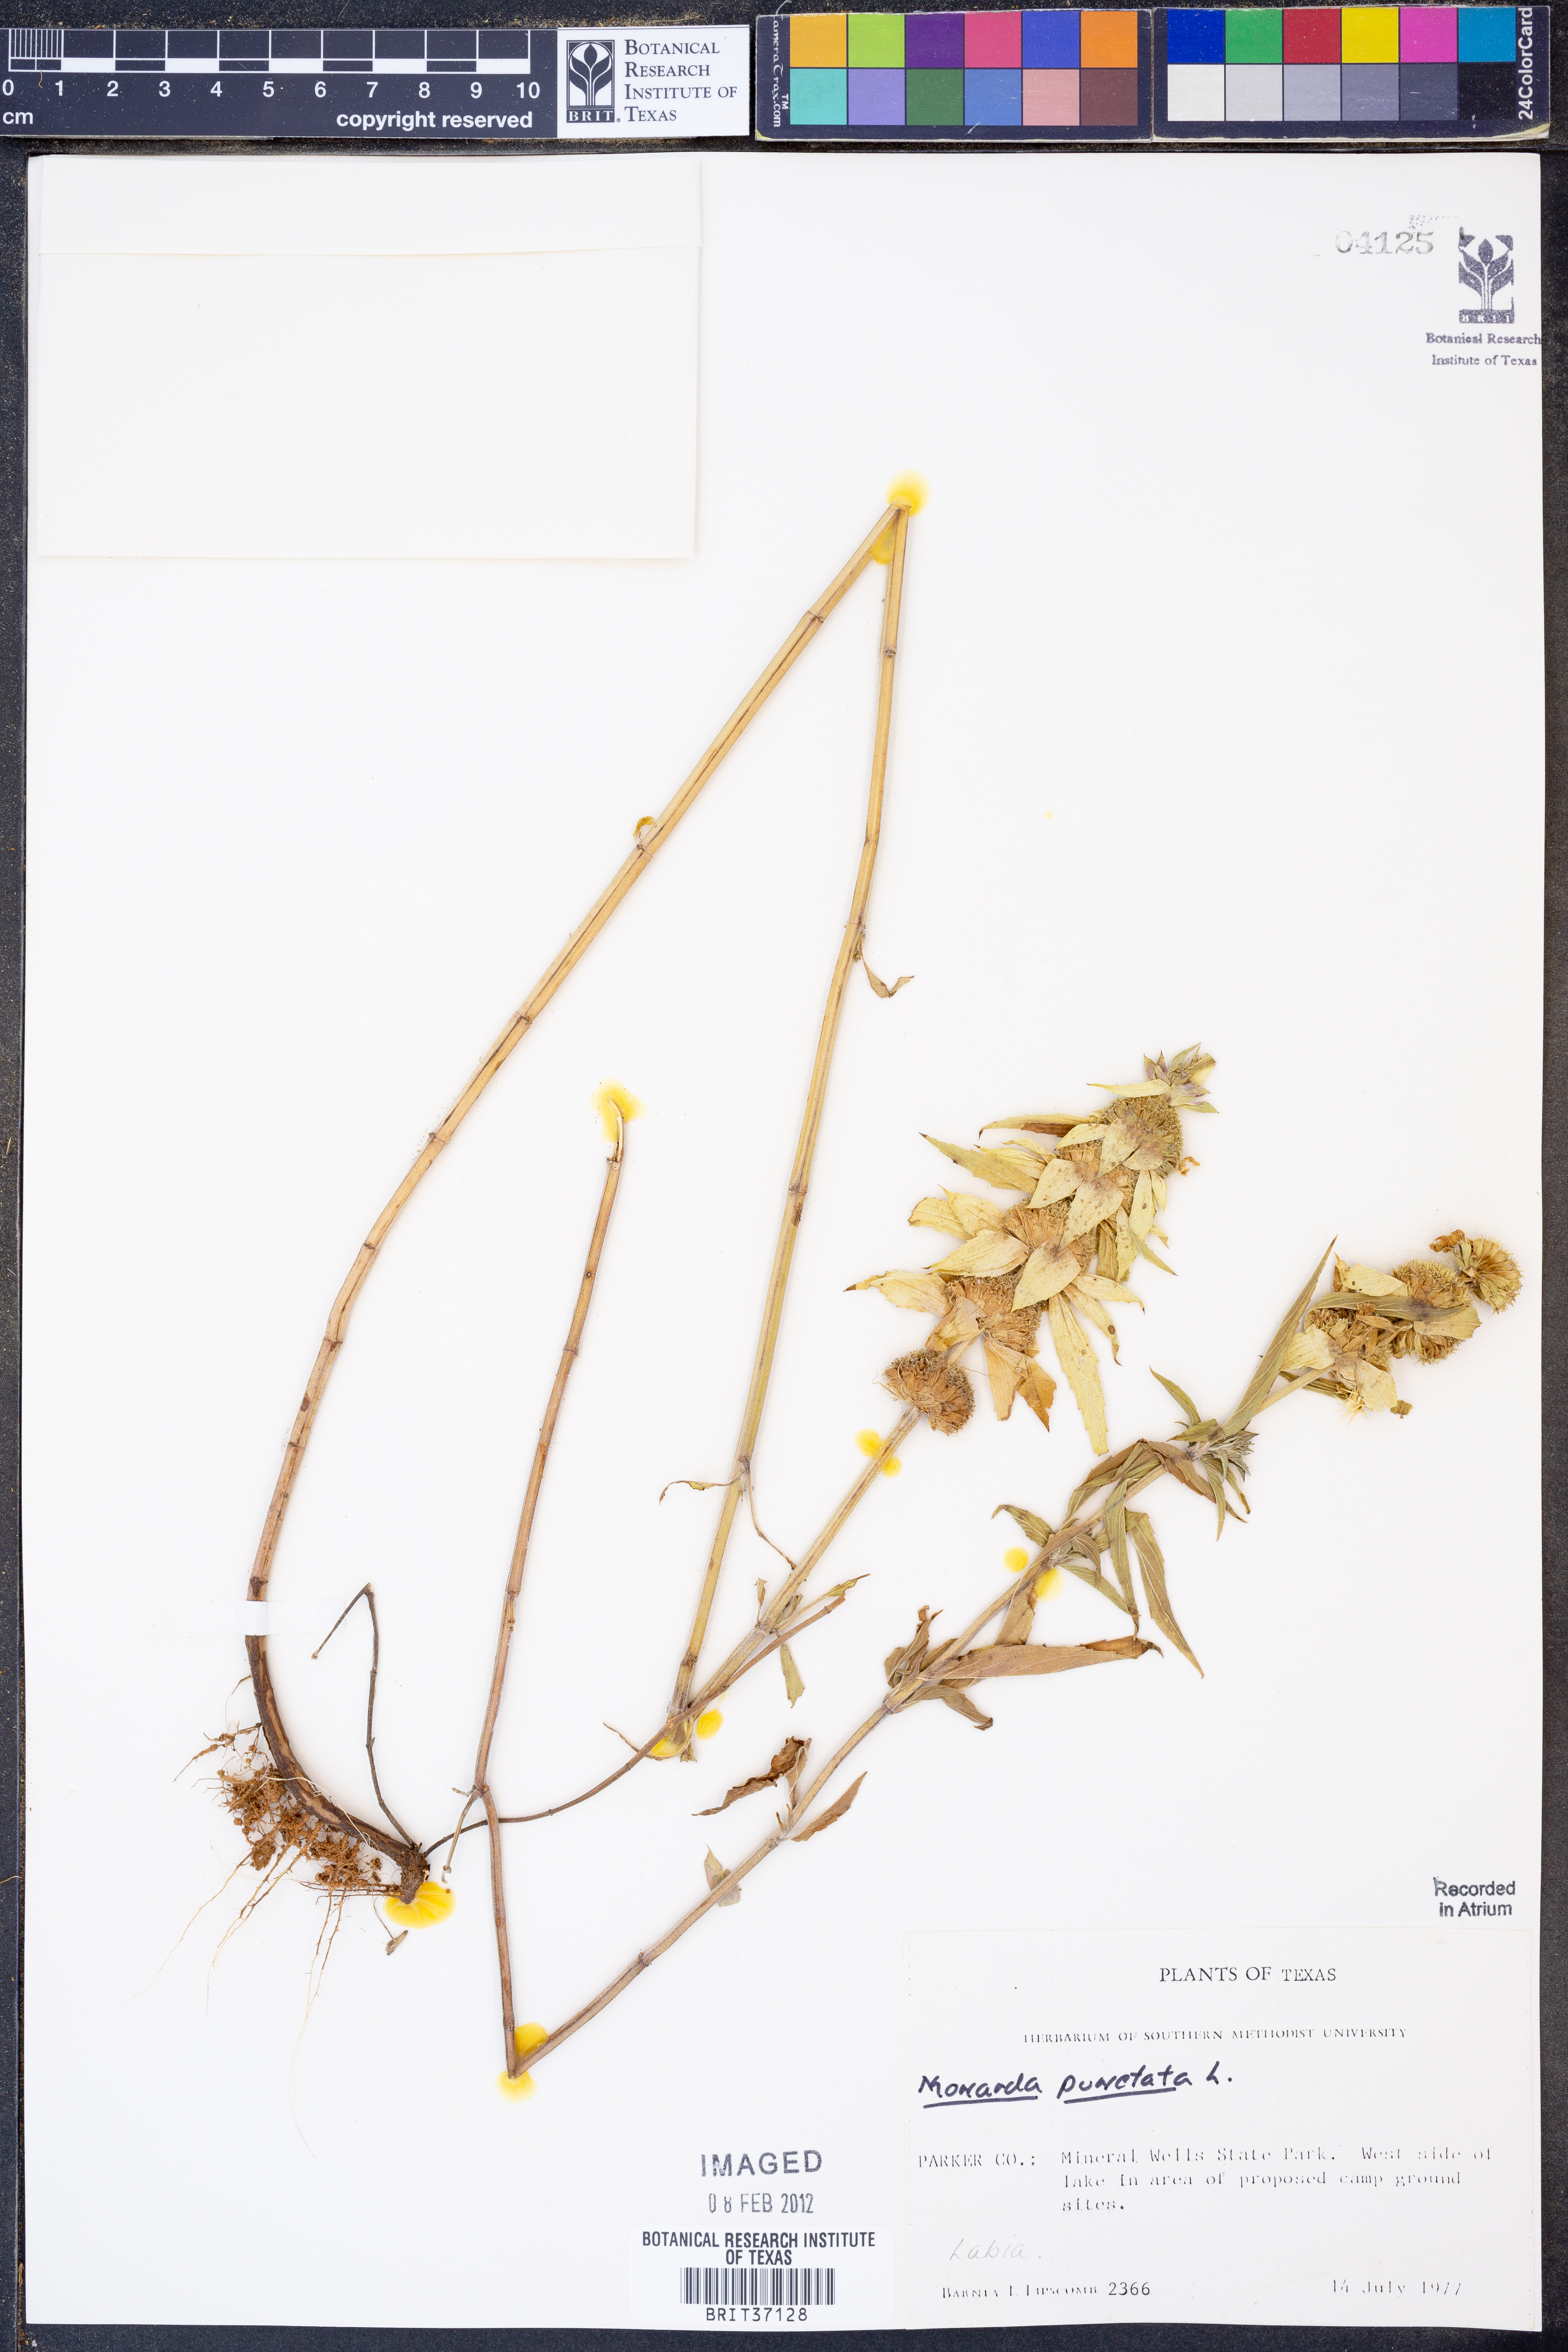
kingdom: Plantae
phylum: Tracheophyta
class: Magnoliopsida
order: Lamiales
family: Lamiaceae
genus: Monarda
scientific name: Monarda punctata
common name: Dotted monarda
